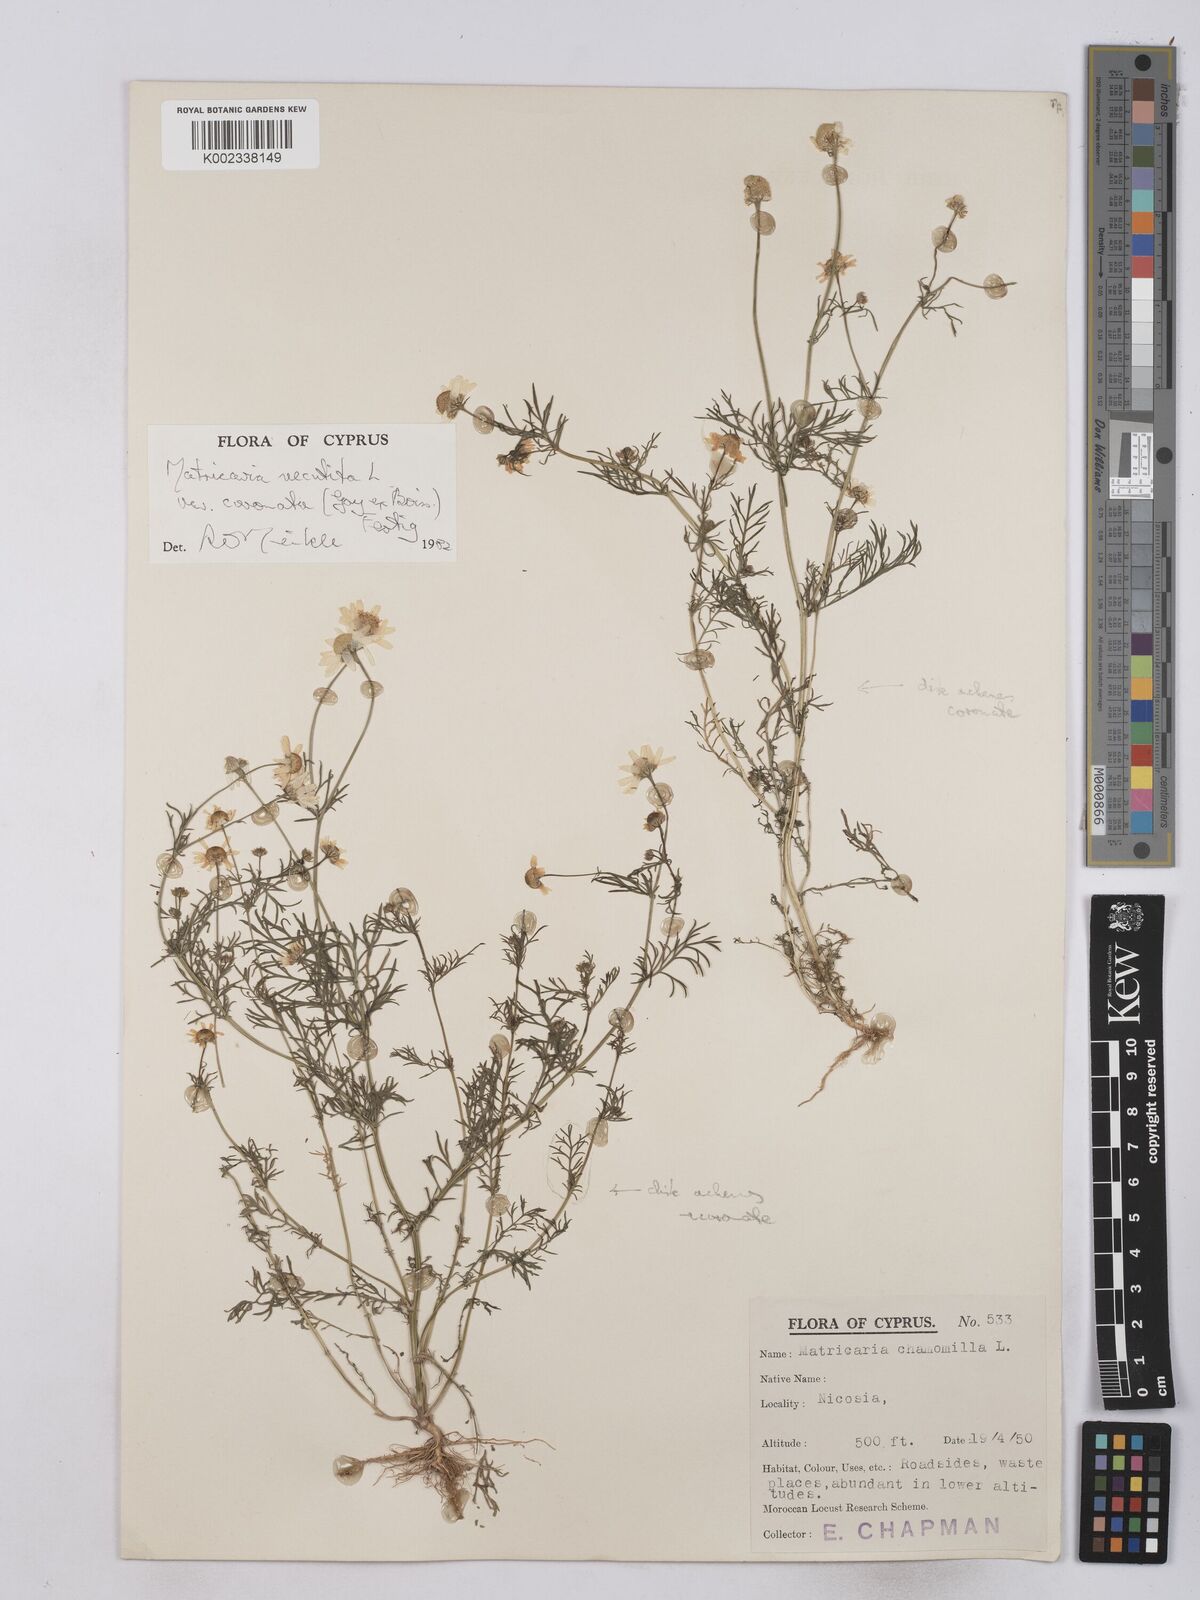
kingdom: Plantae
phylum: Tracheophyta
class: Magnoliopsida
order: Asterales
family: Asteraceae
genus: Matricaria
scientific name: Matricaria chamomilla
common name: Scented mayweed
